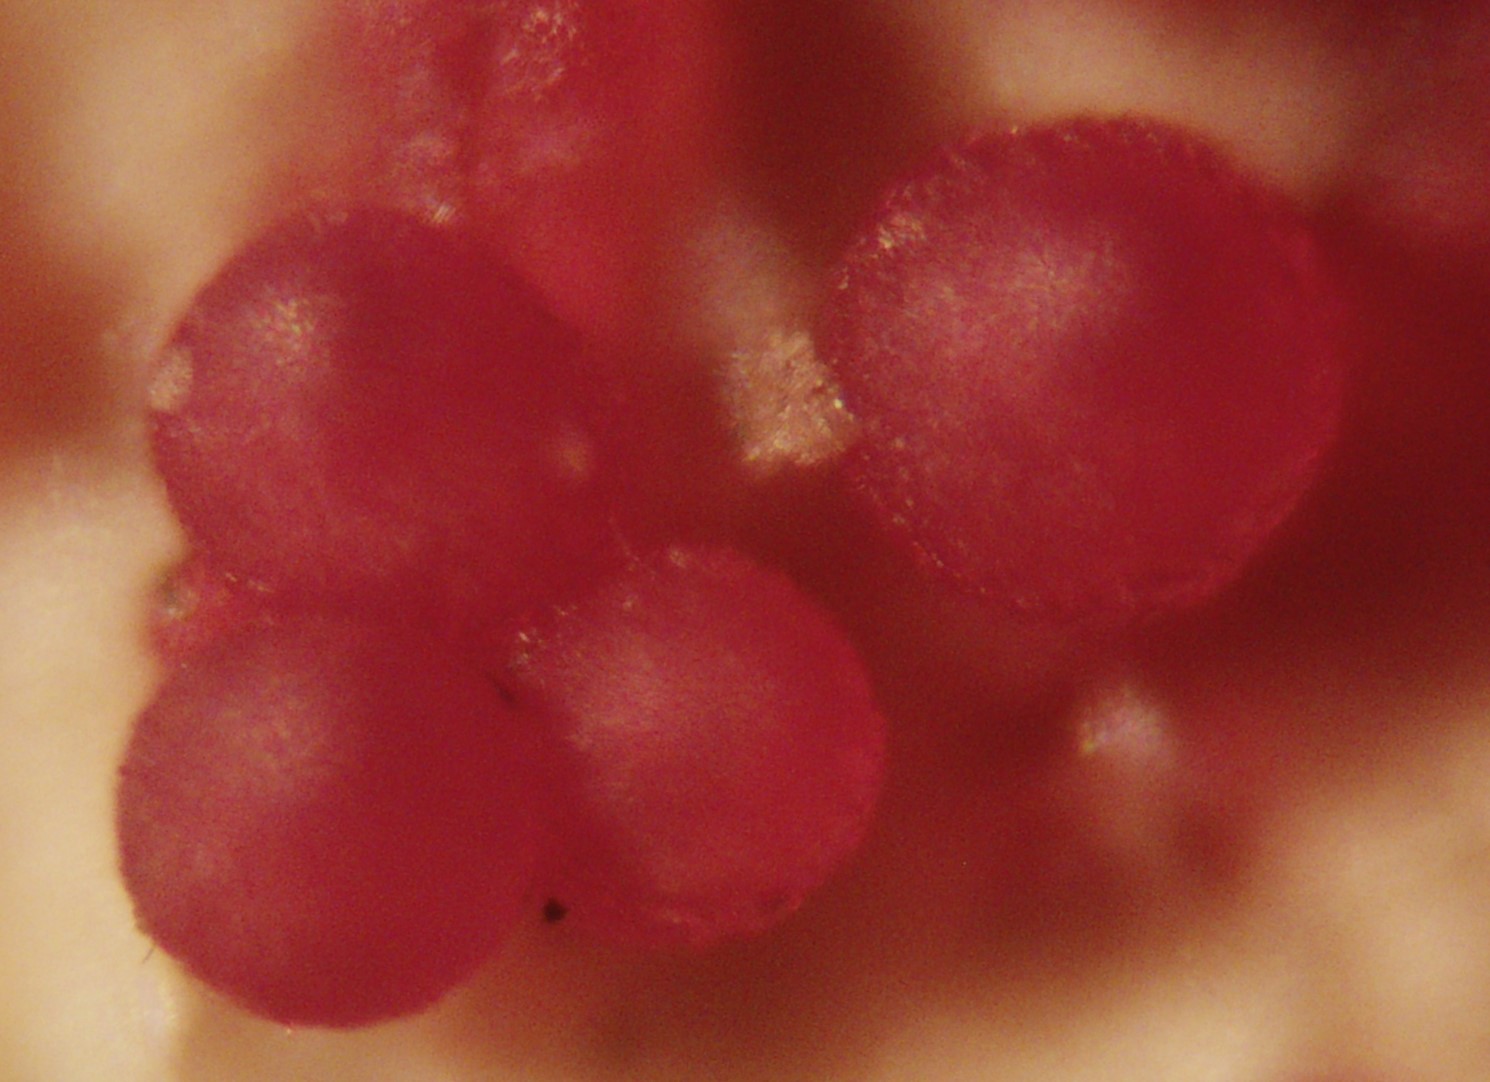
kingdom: Fungi
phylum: Ascomycota
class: Sordariomycetes
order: Hypocreales
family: Nectriaceae
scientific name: Nectriaceae
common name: cinnobersvampfamilien
